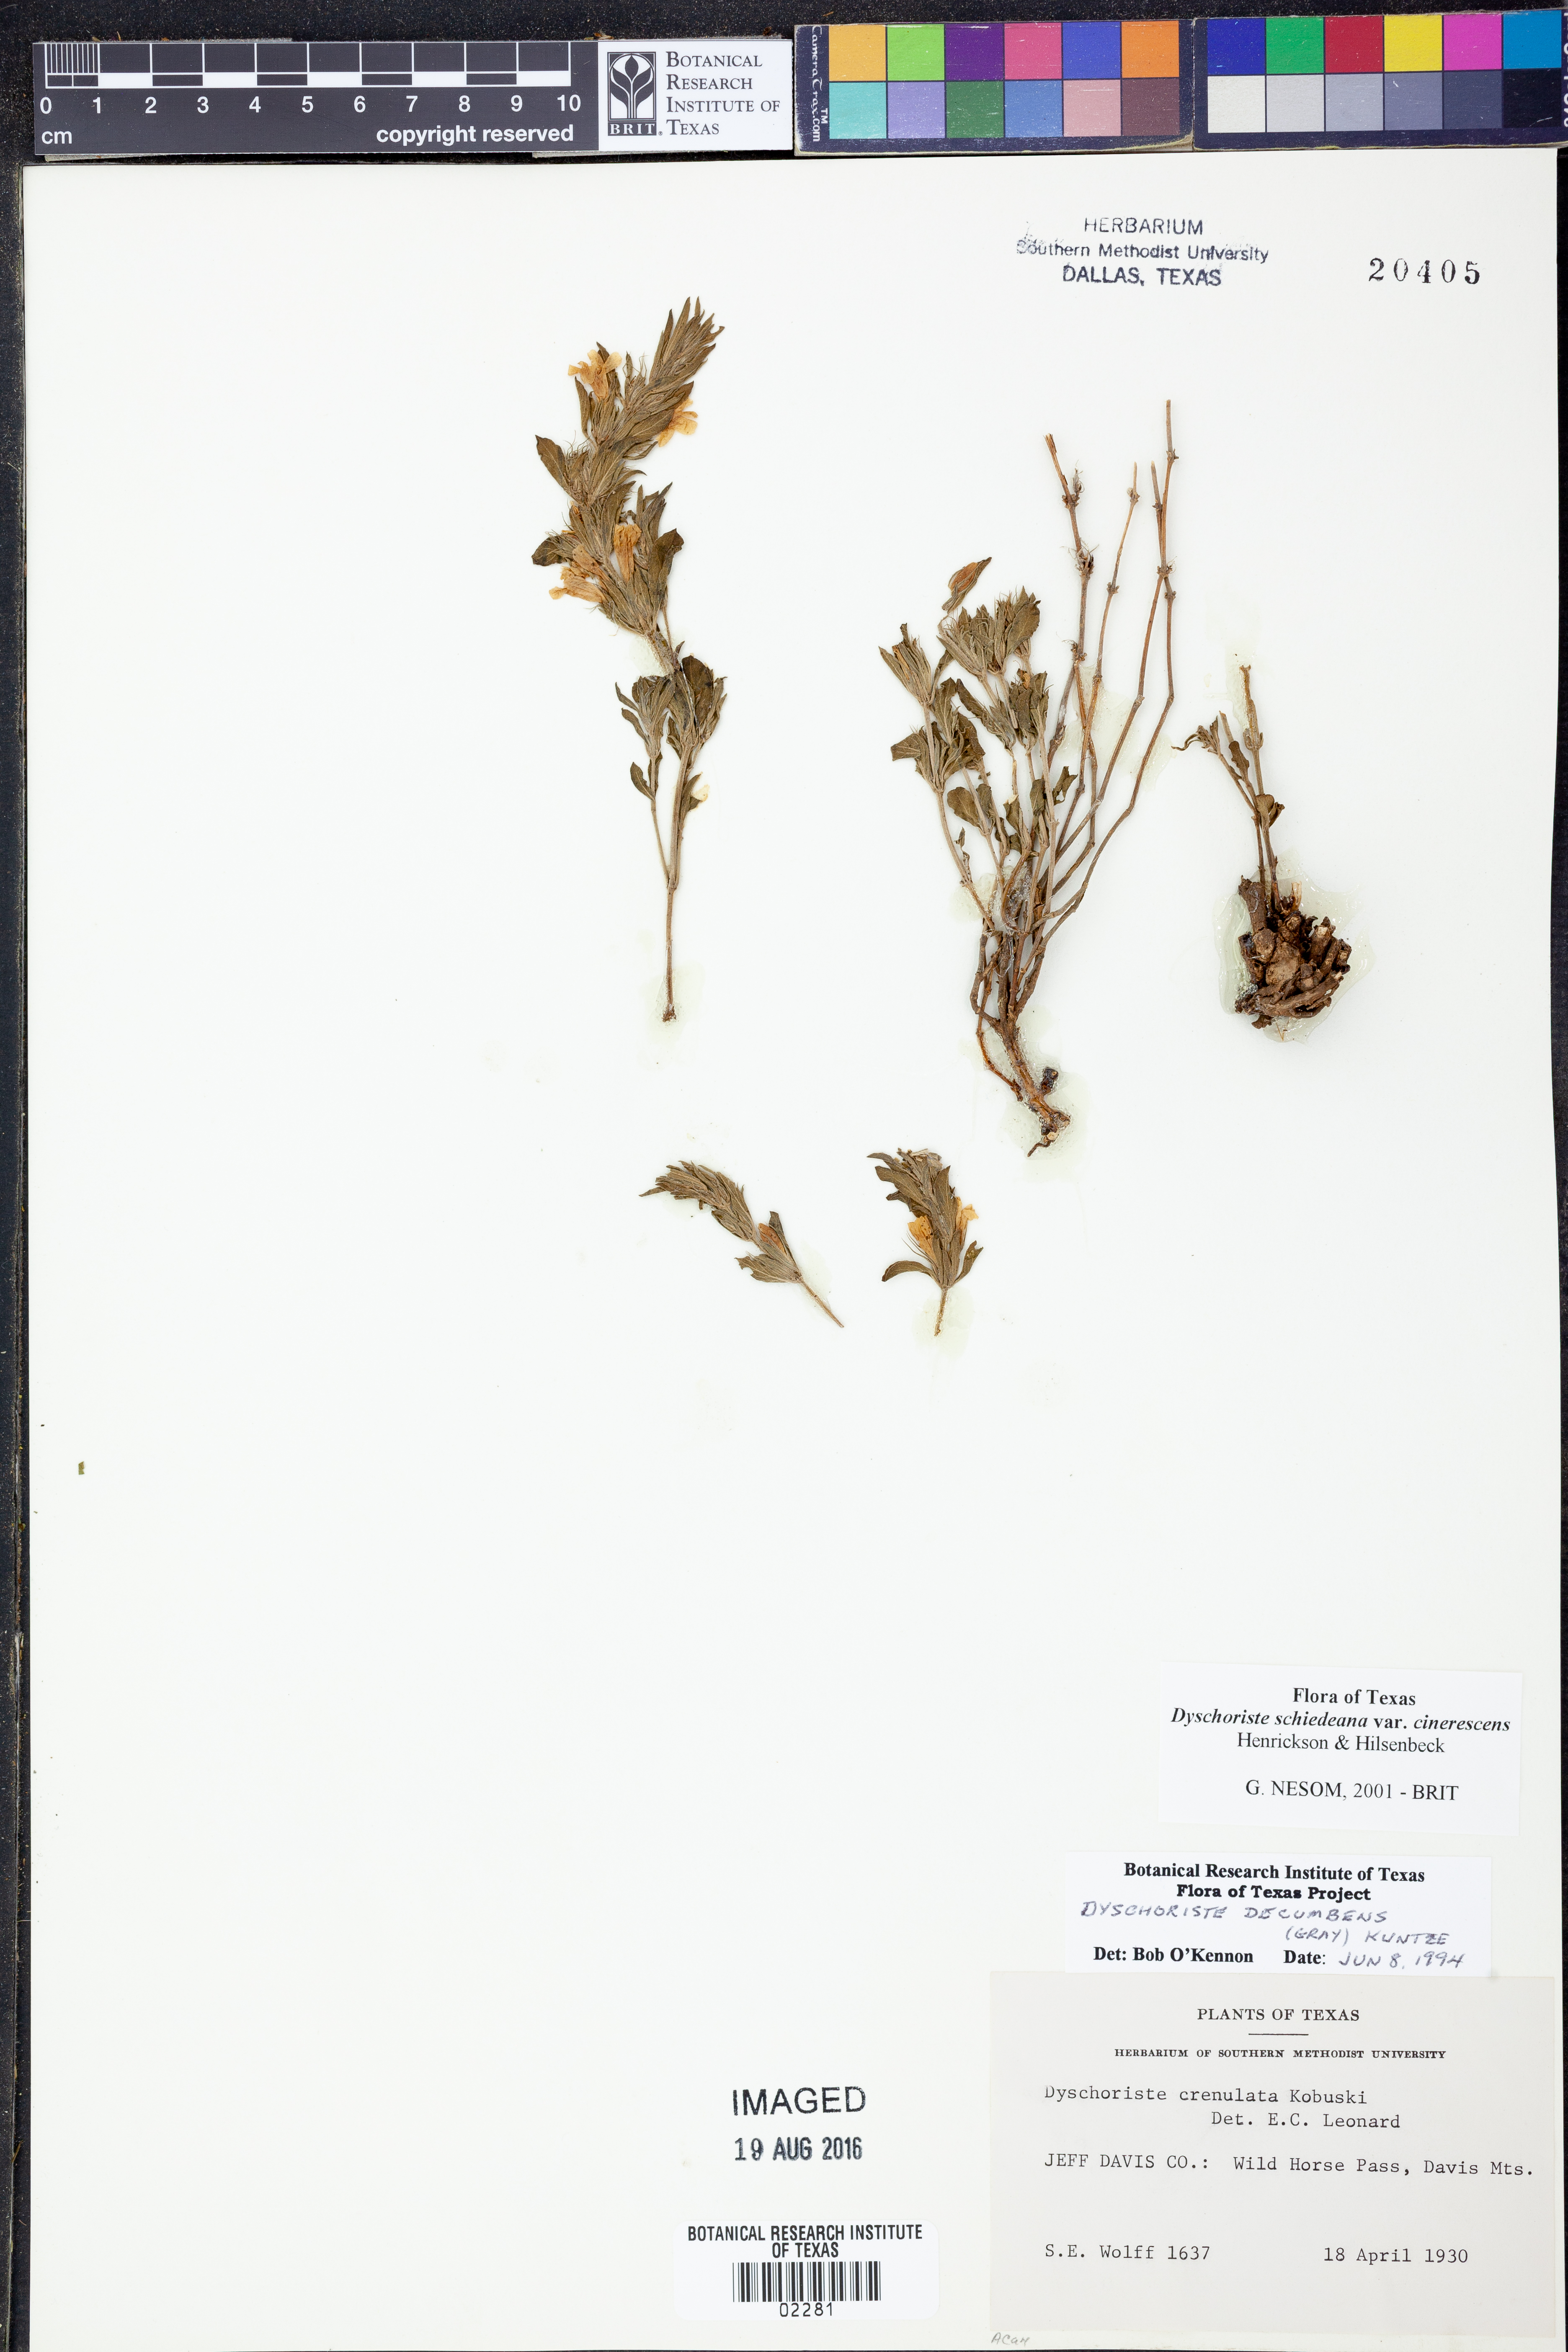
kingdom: Plantae
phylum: Tracheophyta
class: Magnoliopsida
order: Lamiales
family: Acanthaceae
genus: Dyschoriste
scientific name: Dyschoriste cinerascens
